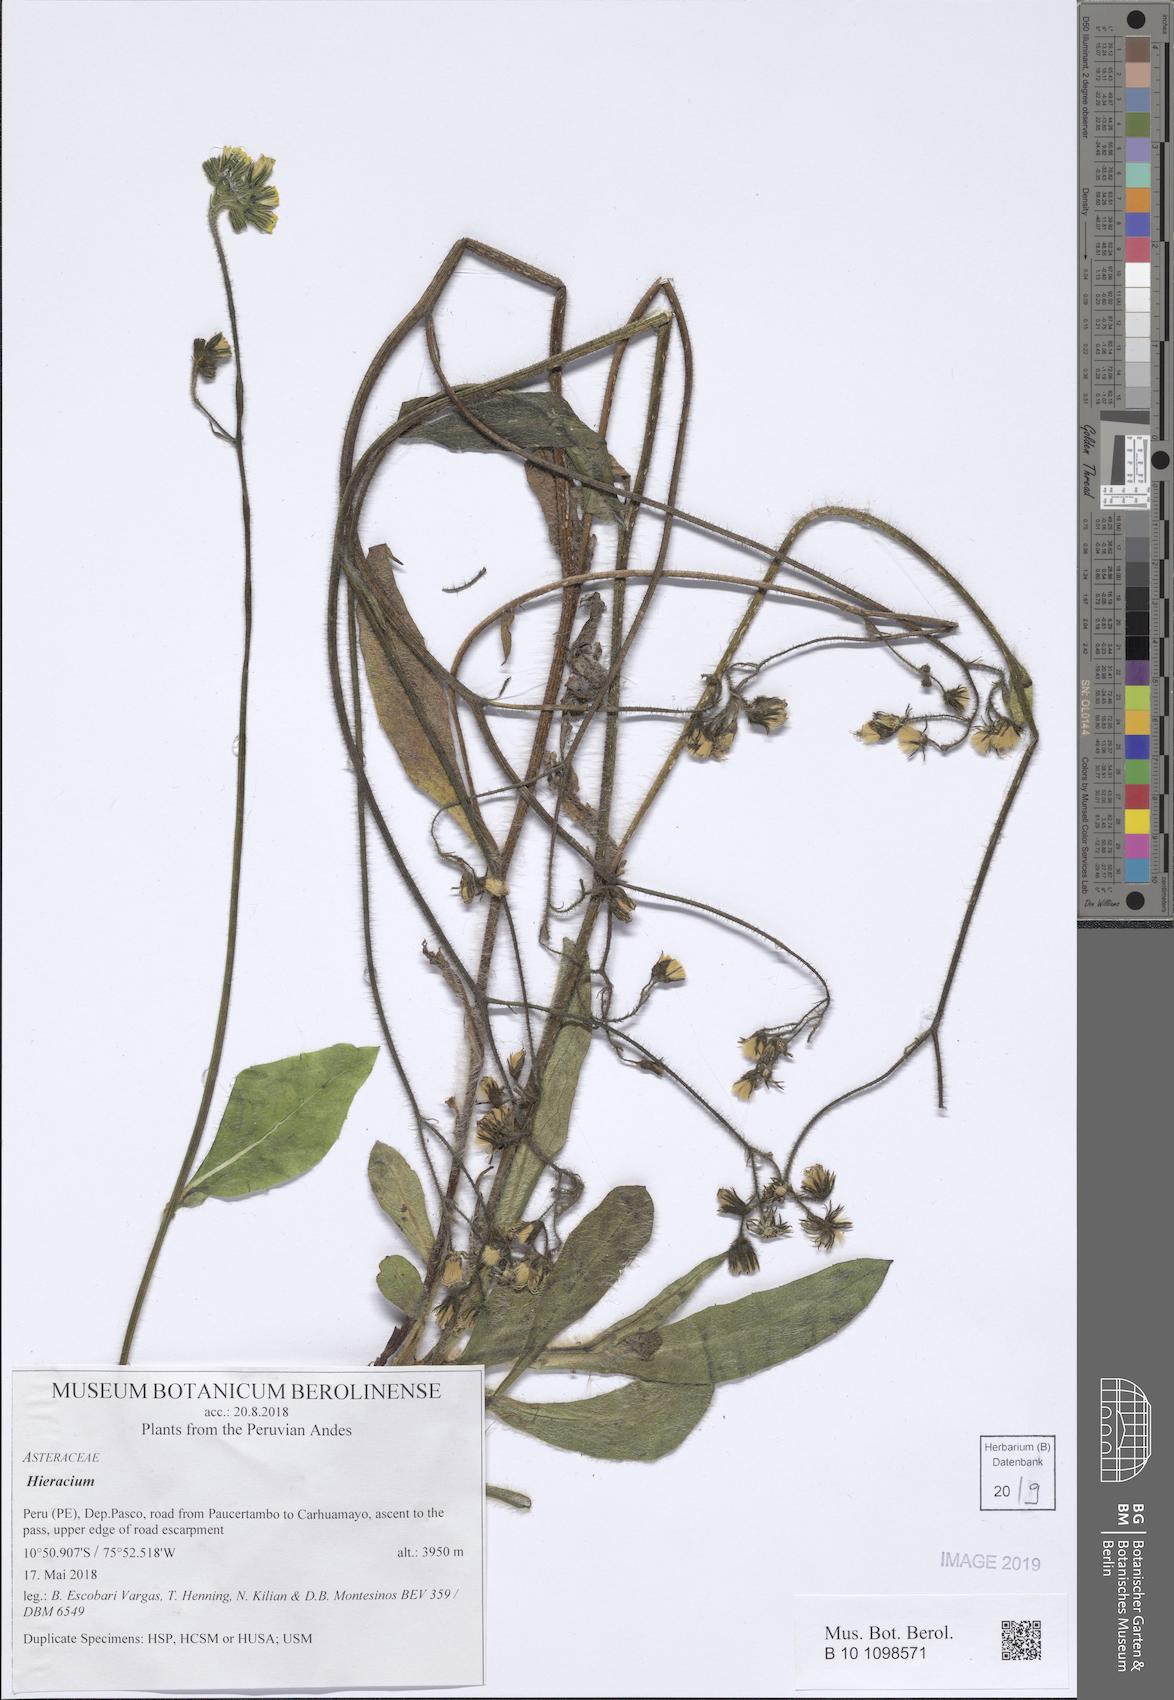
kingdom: Plantae
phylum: Tracheophyta
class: Magnoliopsida
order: Asterales
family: Asteraceae
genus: Hieracium
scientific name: Hieracium
